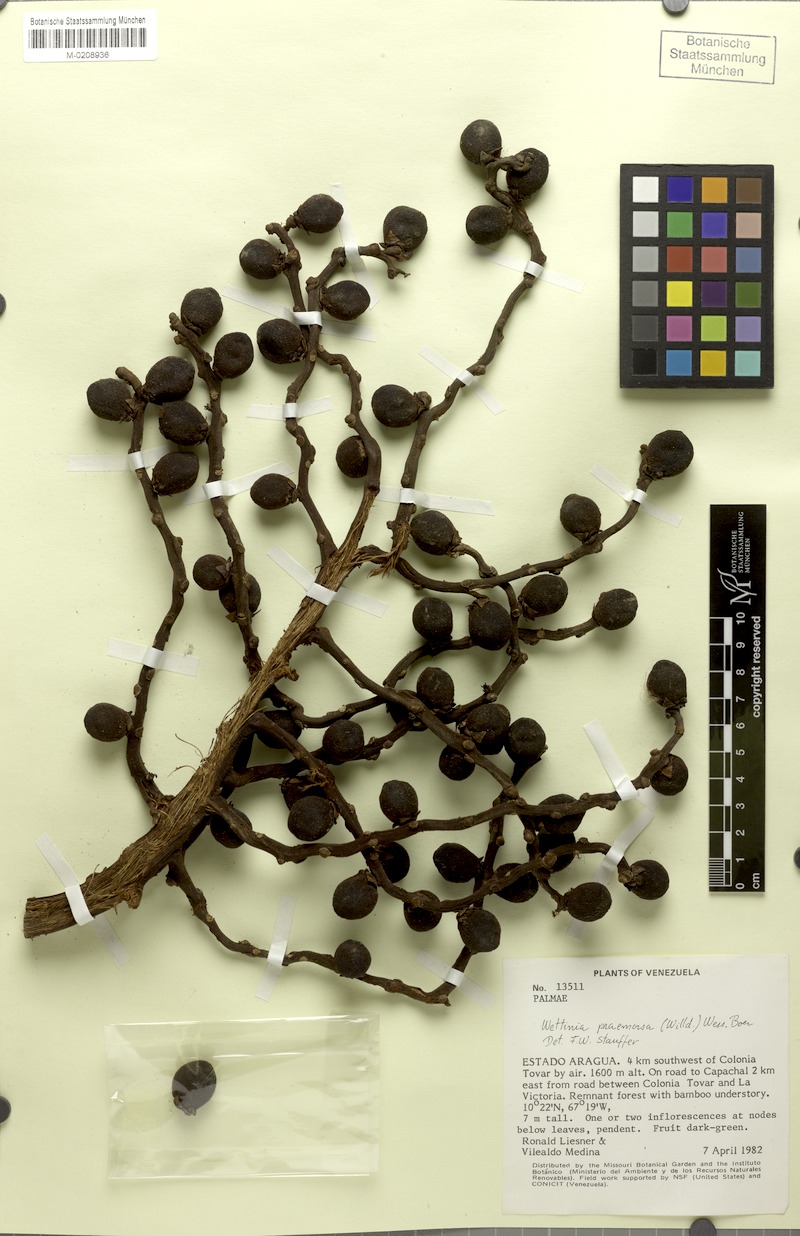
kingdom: Plantae
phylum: Tracheophyta
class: Liliopsida
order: Arecales
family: Arecaceae
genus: Wettinia
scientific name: Wettinia praemorsa
